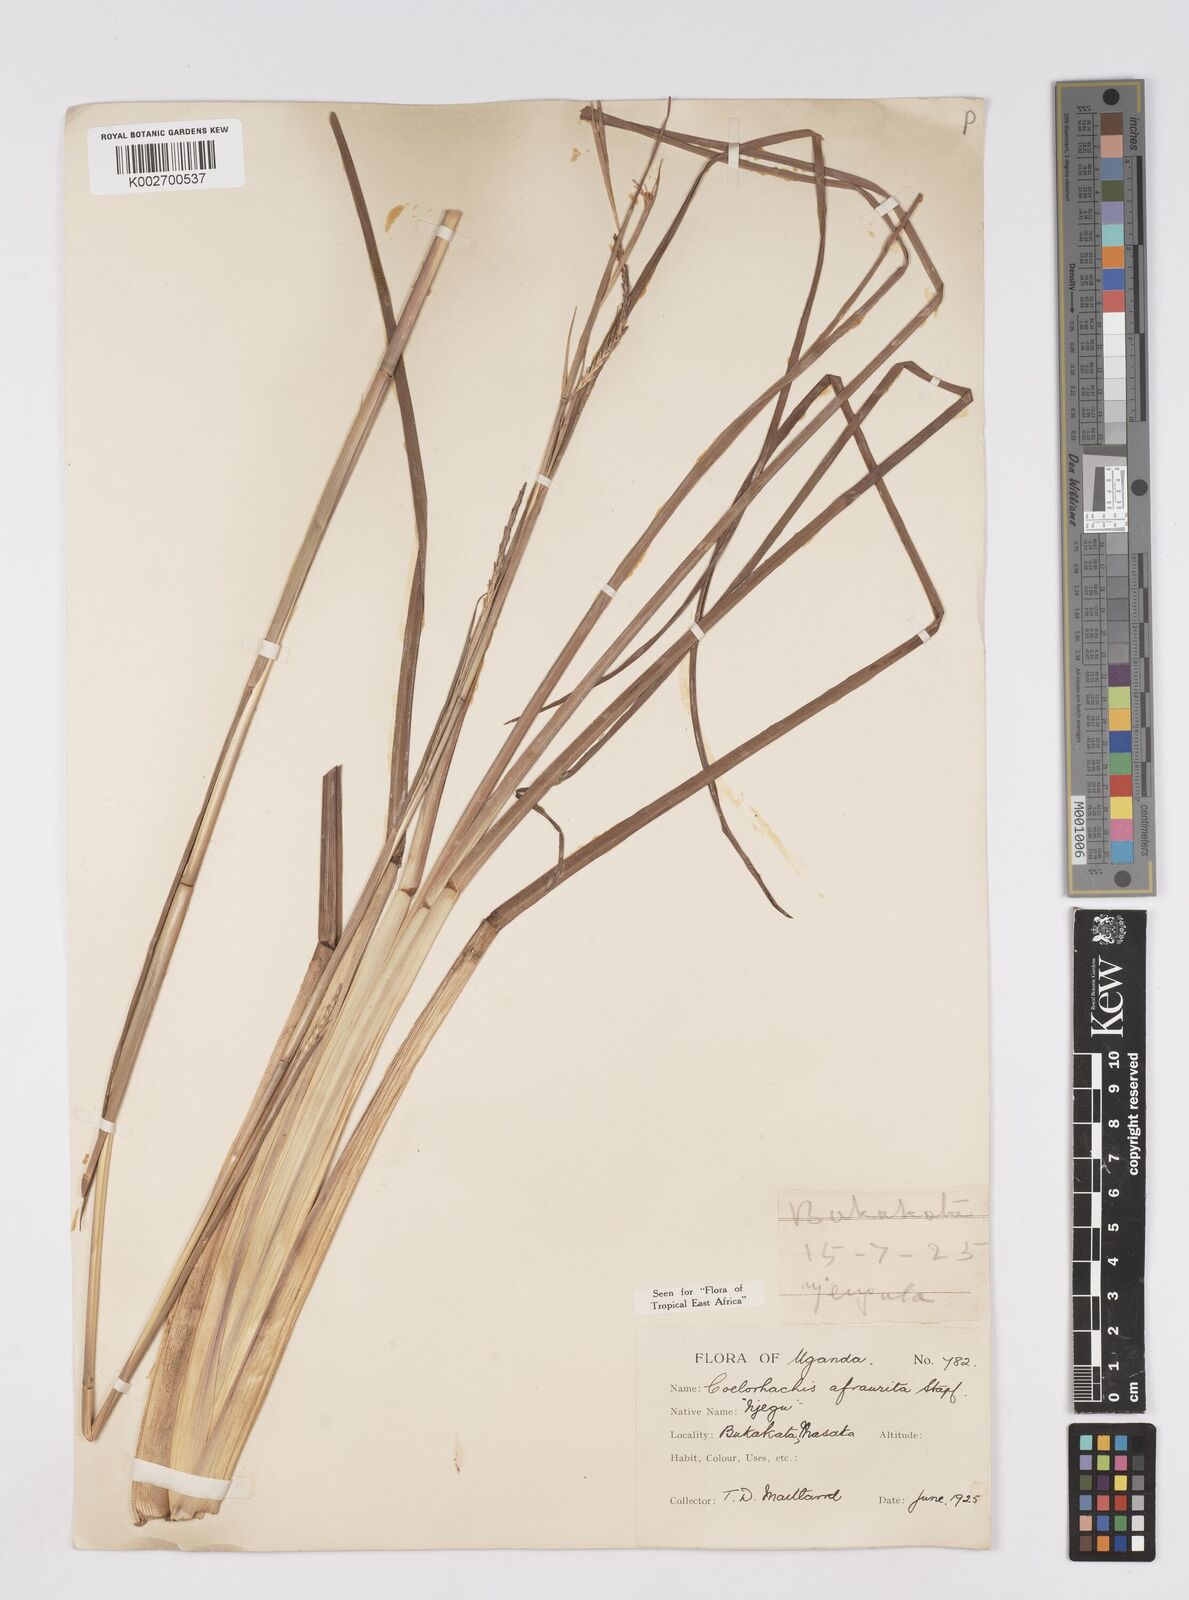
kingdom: Plantae
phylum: Tracheophyta
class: Liliopsida
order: Poales
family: Poaceae
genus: Rottboellia
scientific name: Rottboellia afraurita
